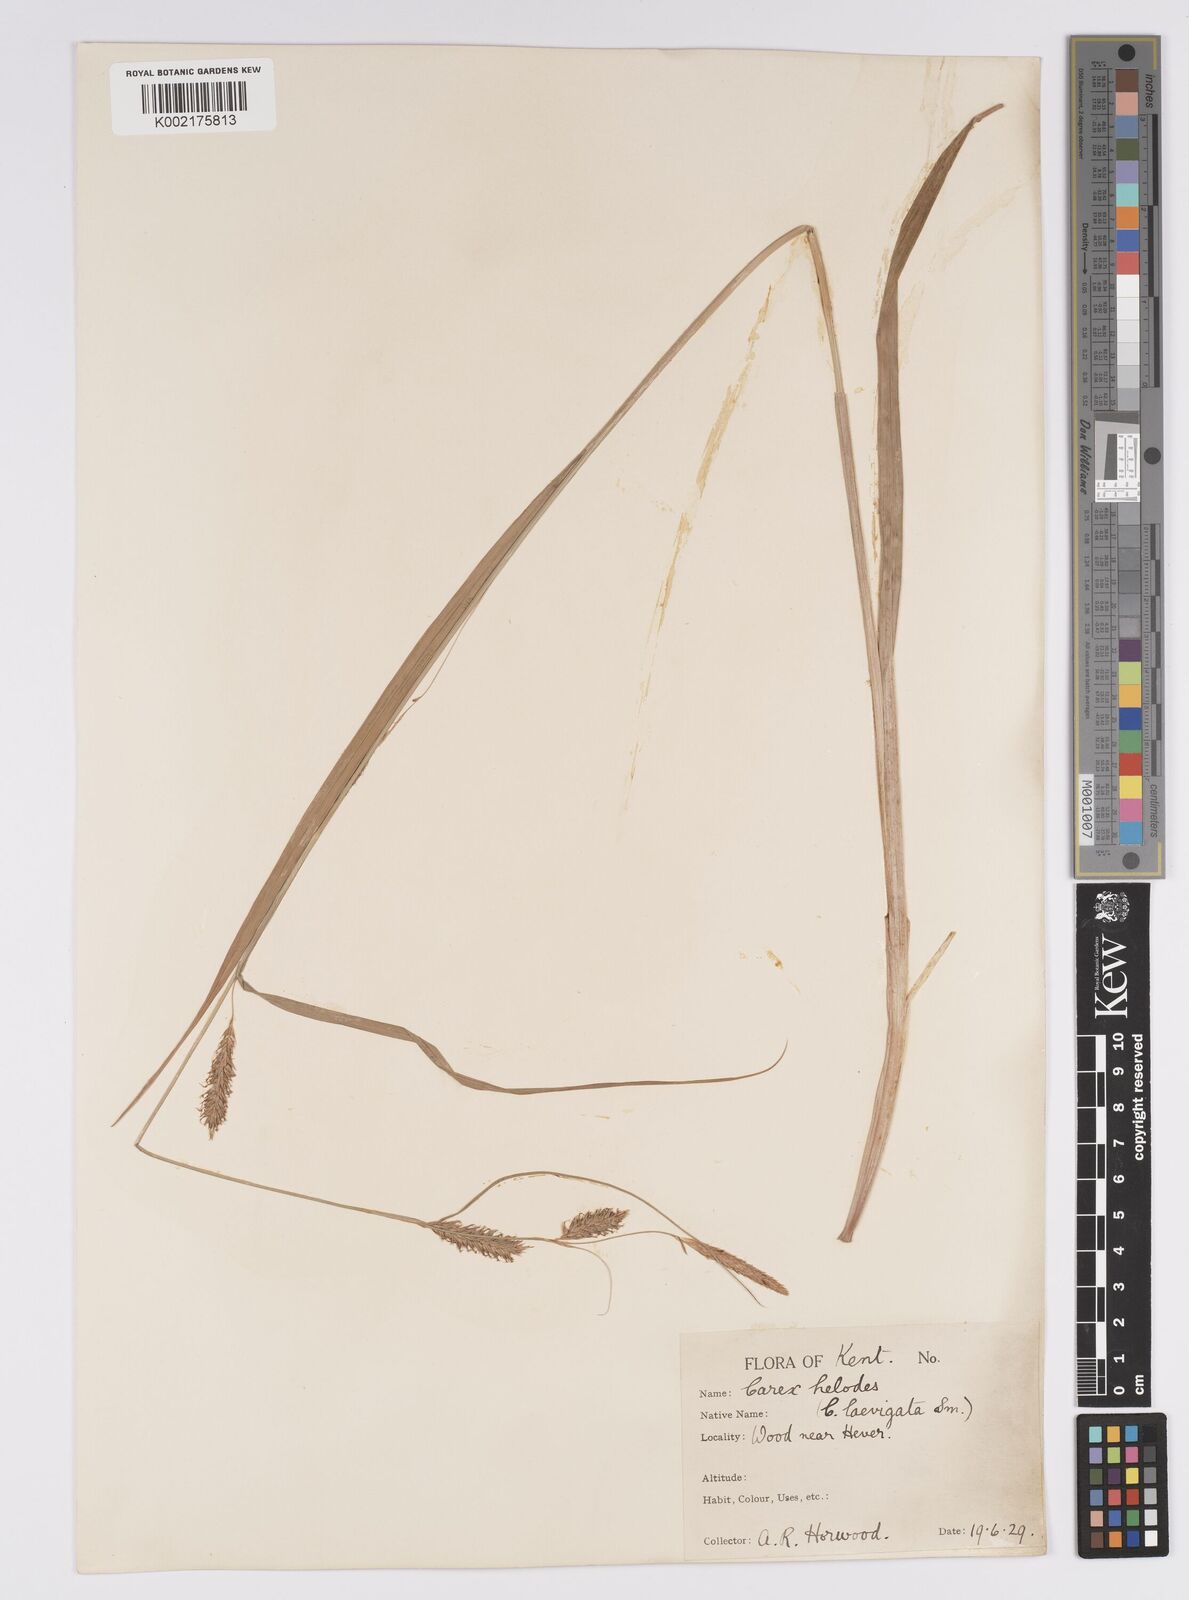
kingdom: Plantae
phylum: Tracheophyta
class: Liliopsida
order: Poales
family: Cyperaceae
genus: Carex
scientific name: Carex laevigata
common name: Smooth-stalked sedge
